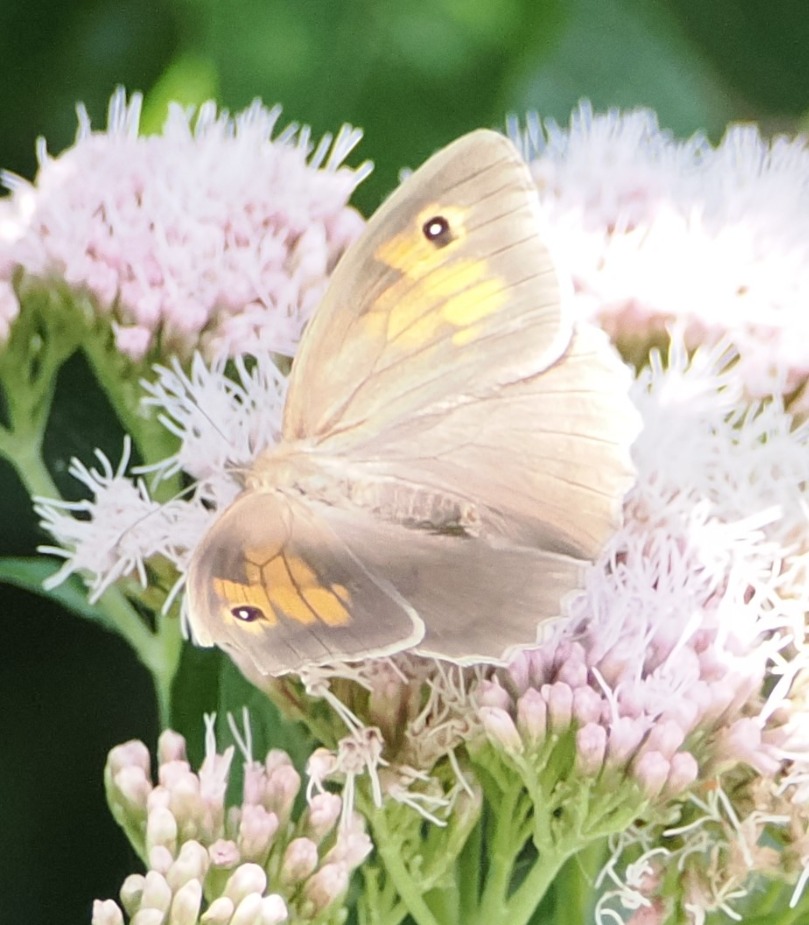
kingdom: Animalia
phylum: Arthropoda
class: Insecta
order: Lepidoptera
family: Nymphalidae
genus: Maniola
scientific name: Maniola jurtina
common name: Græsrandøje
